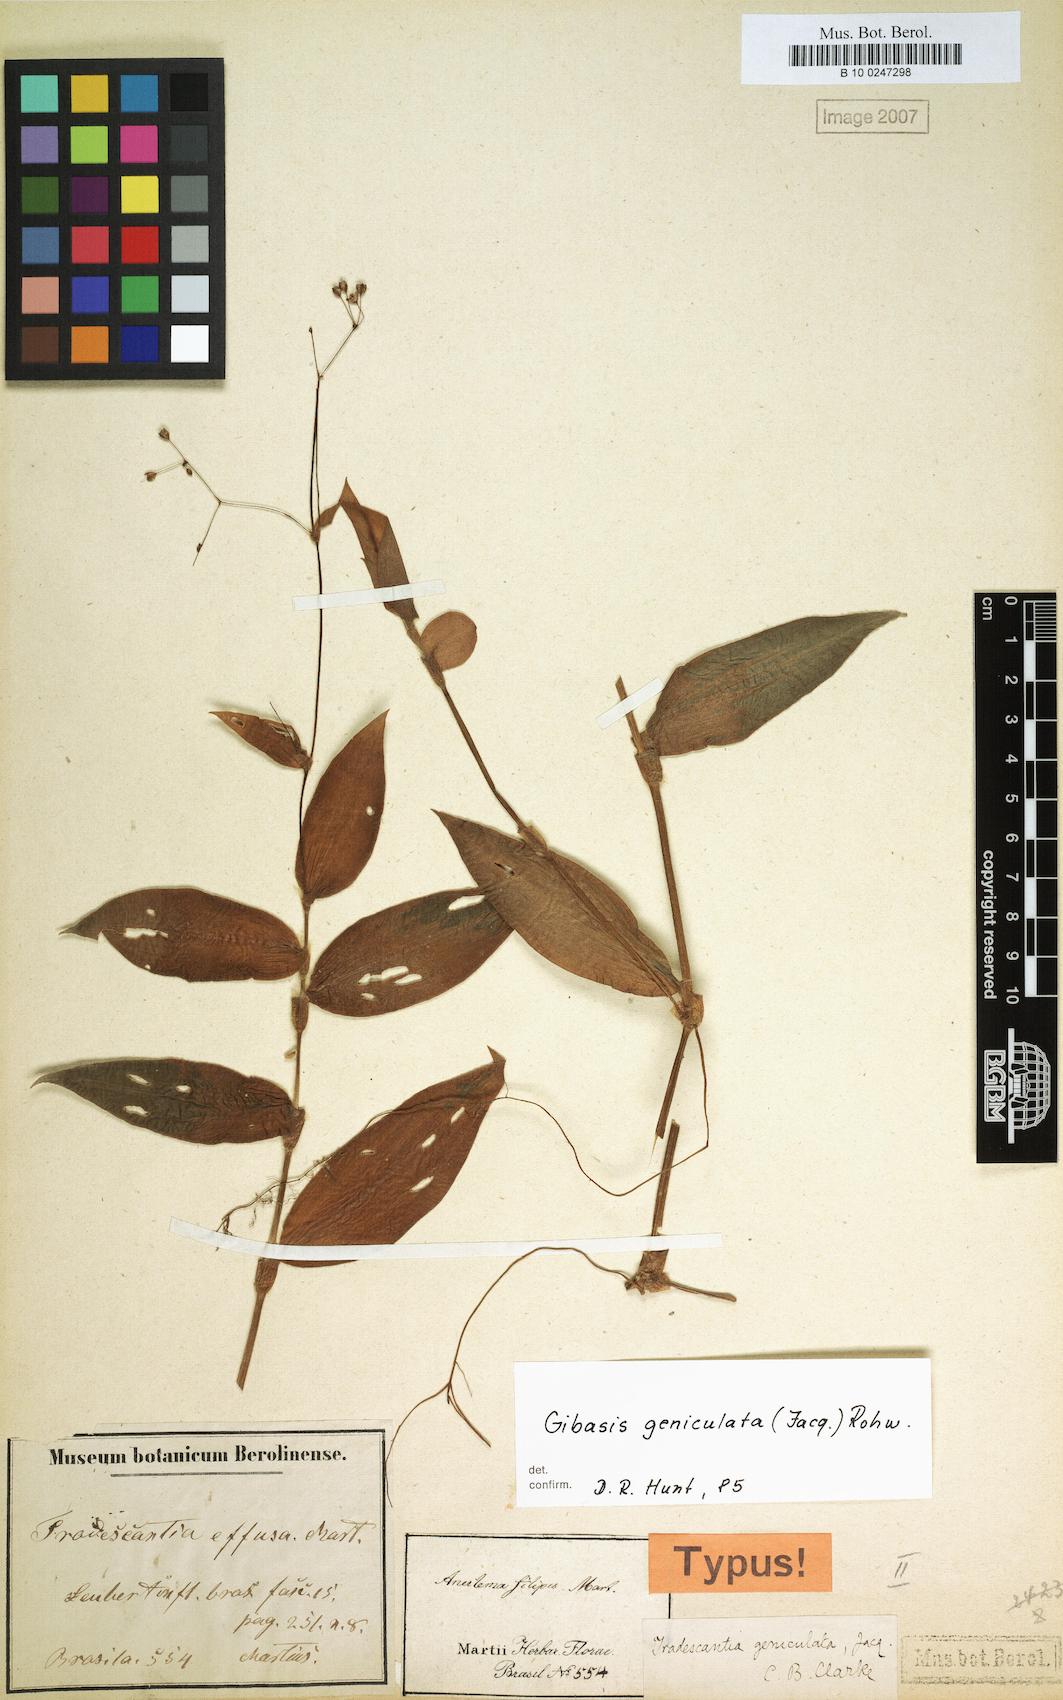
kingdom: Plantae
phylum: Tracheophyta
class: Liliopsida
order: Commelinales
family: Commelinaceae
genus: Gibasis
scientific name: Gibasis geniculata
